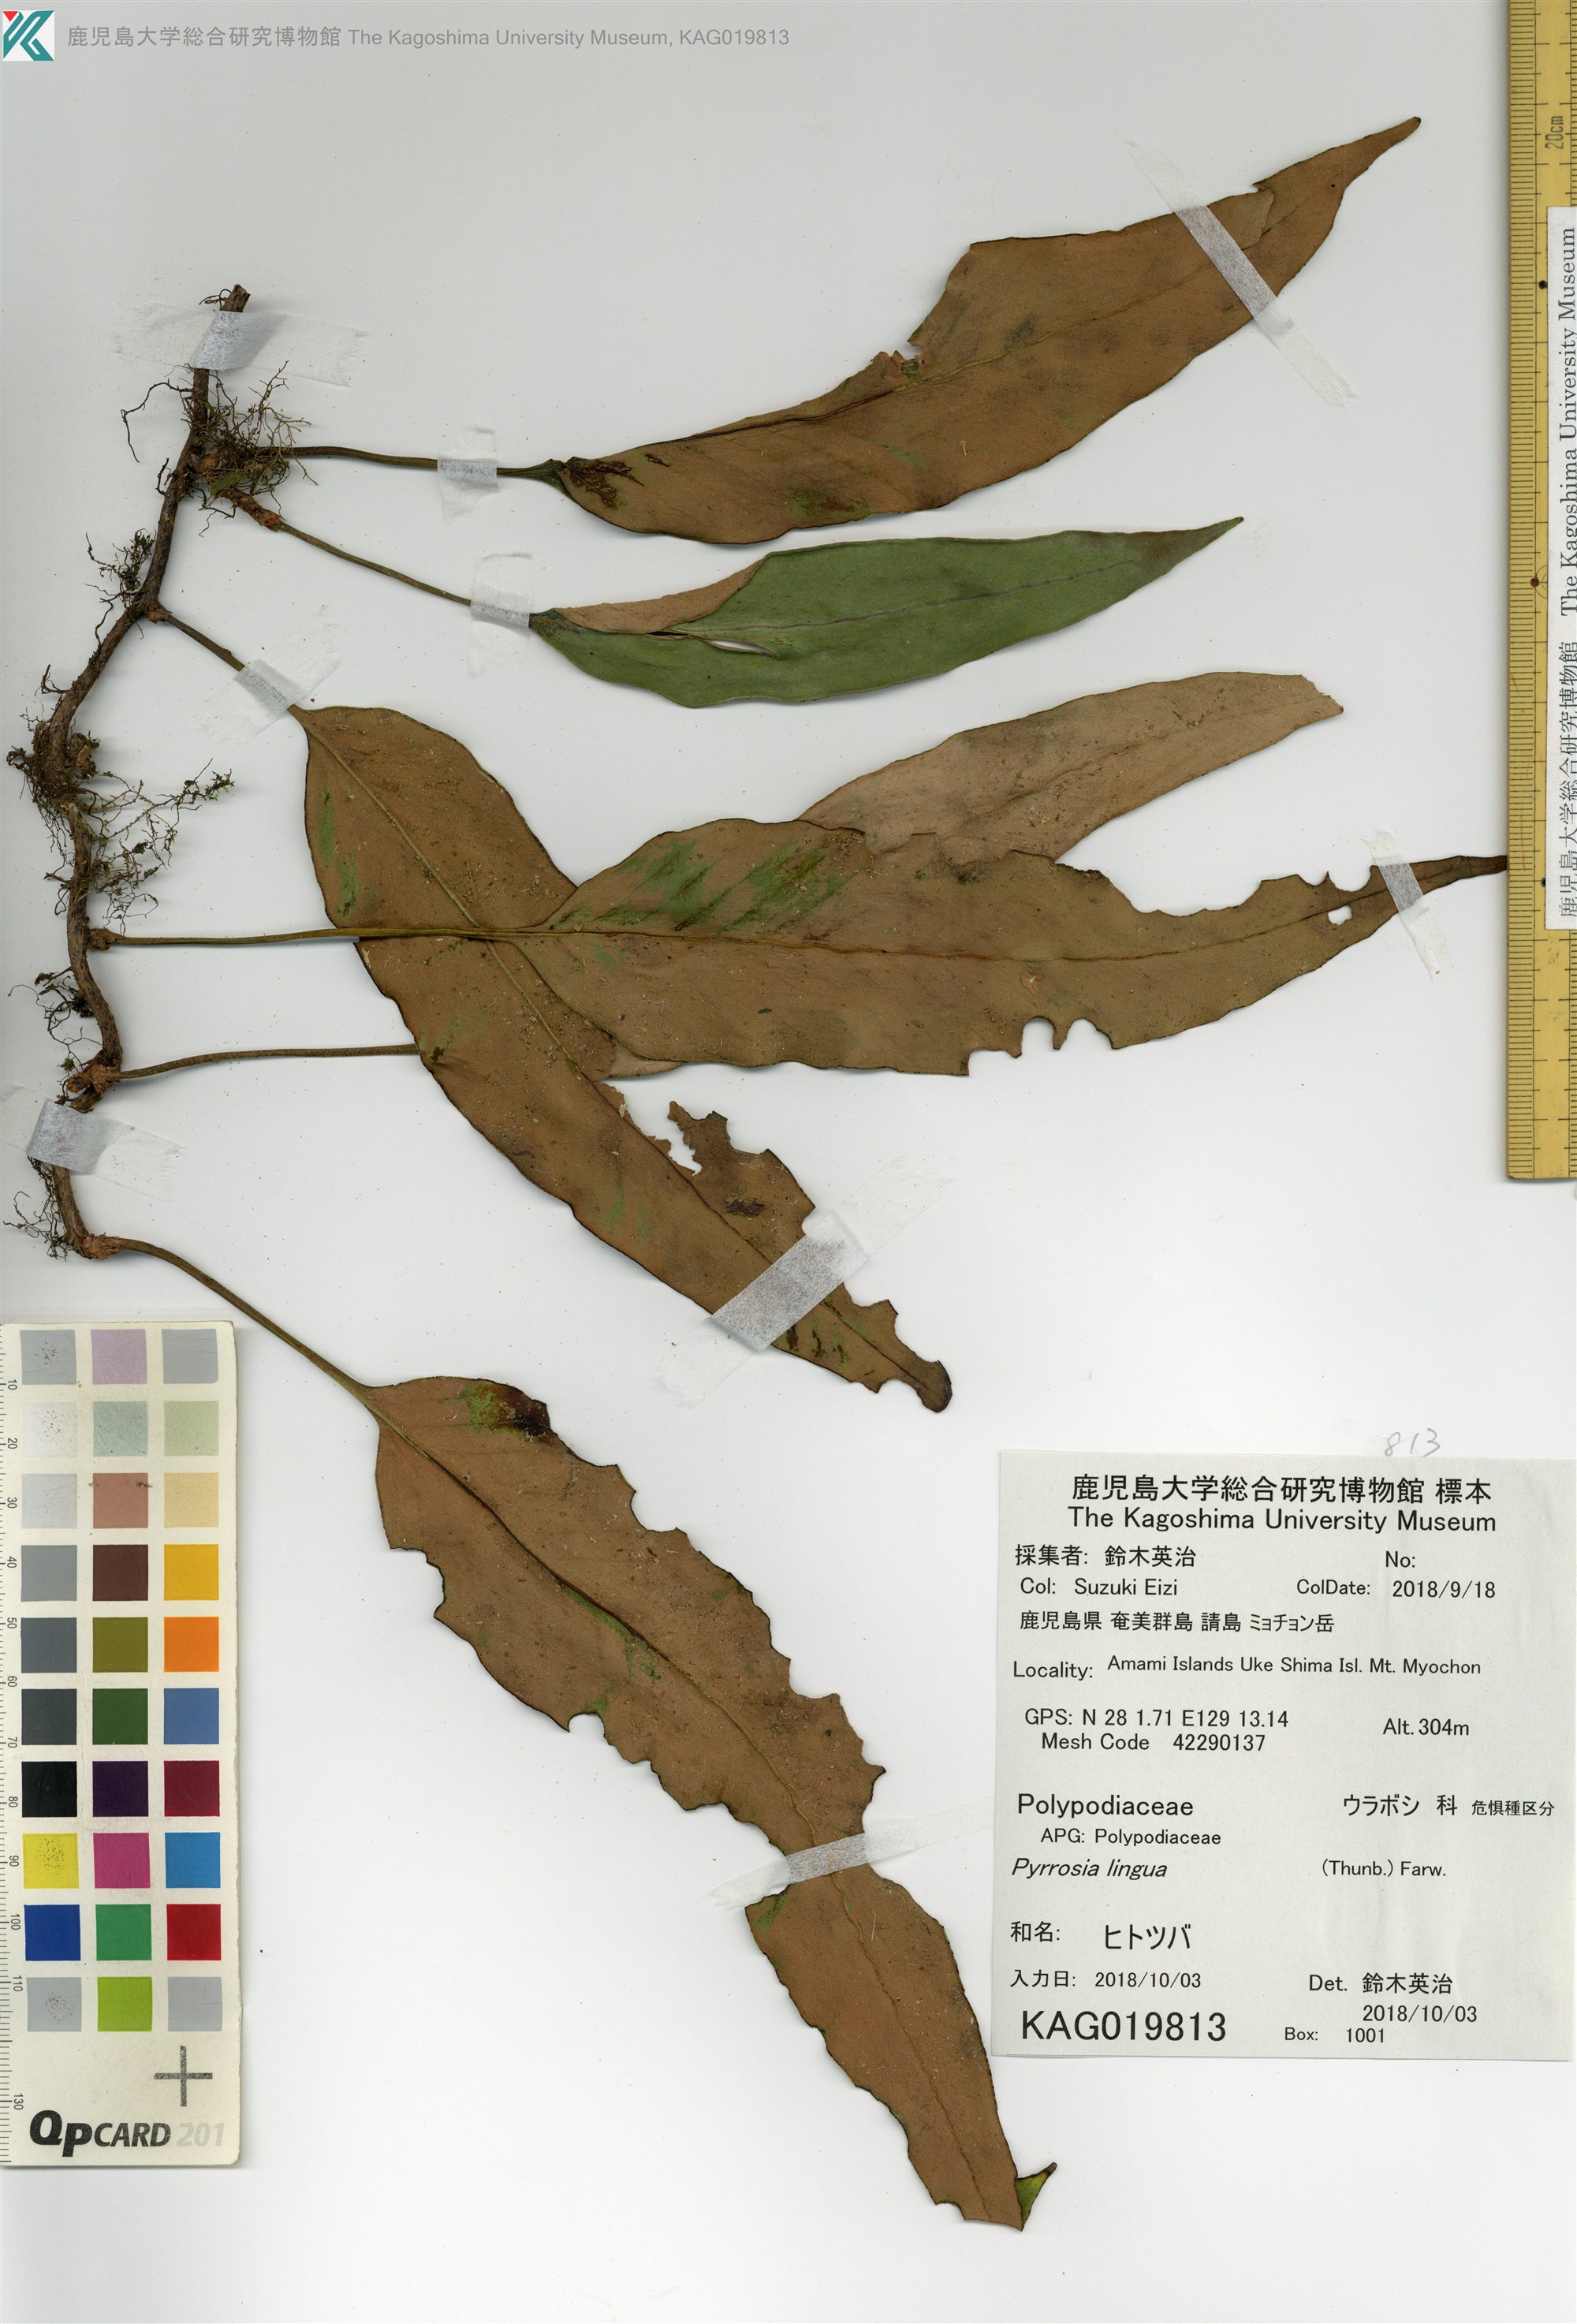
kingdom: Plantae
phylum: Tracheophyta
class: Polypodiopsida
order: Polypodiales
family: Polypodiaceae
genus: Pyrrosia
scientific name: Pyrrosia lingua
